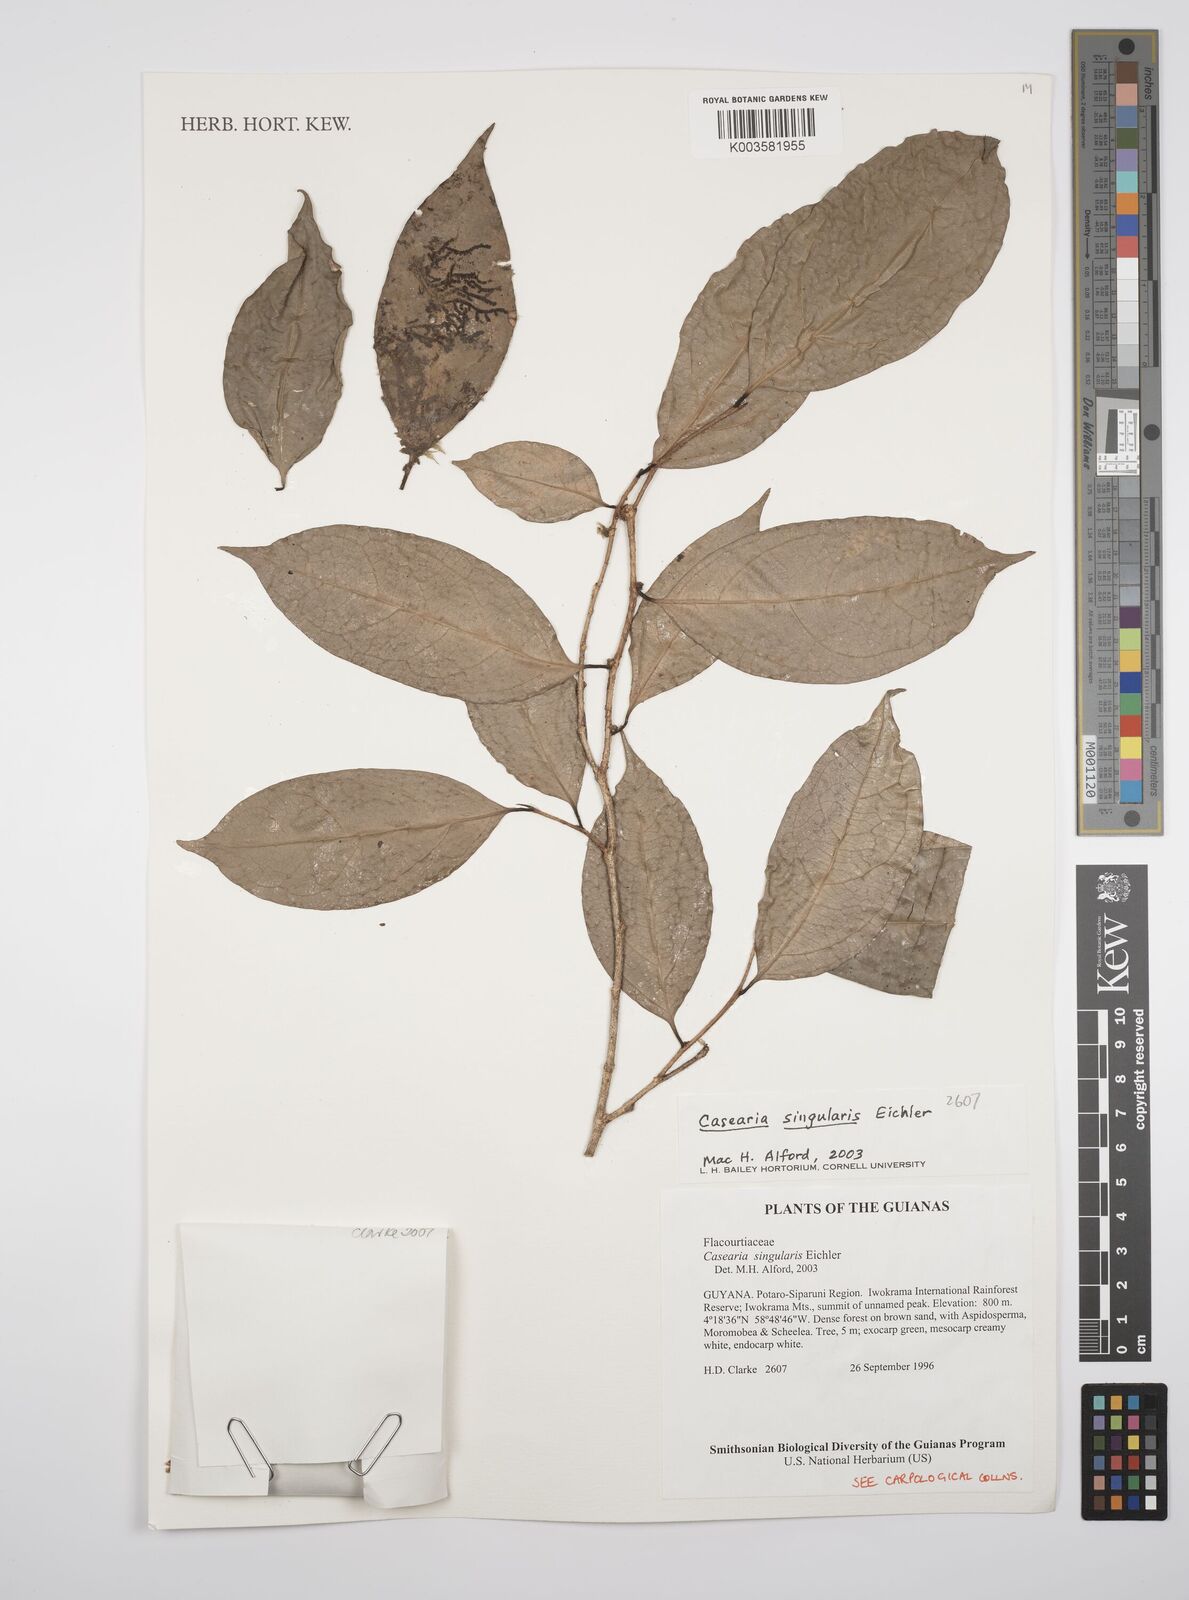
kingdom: Plantae
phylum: Tracheophyta
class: Magnoliopsida
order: Malpighiales
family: Salicaceae
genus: Casearia
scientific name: Casearia combaymensis
